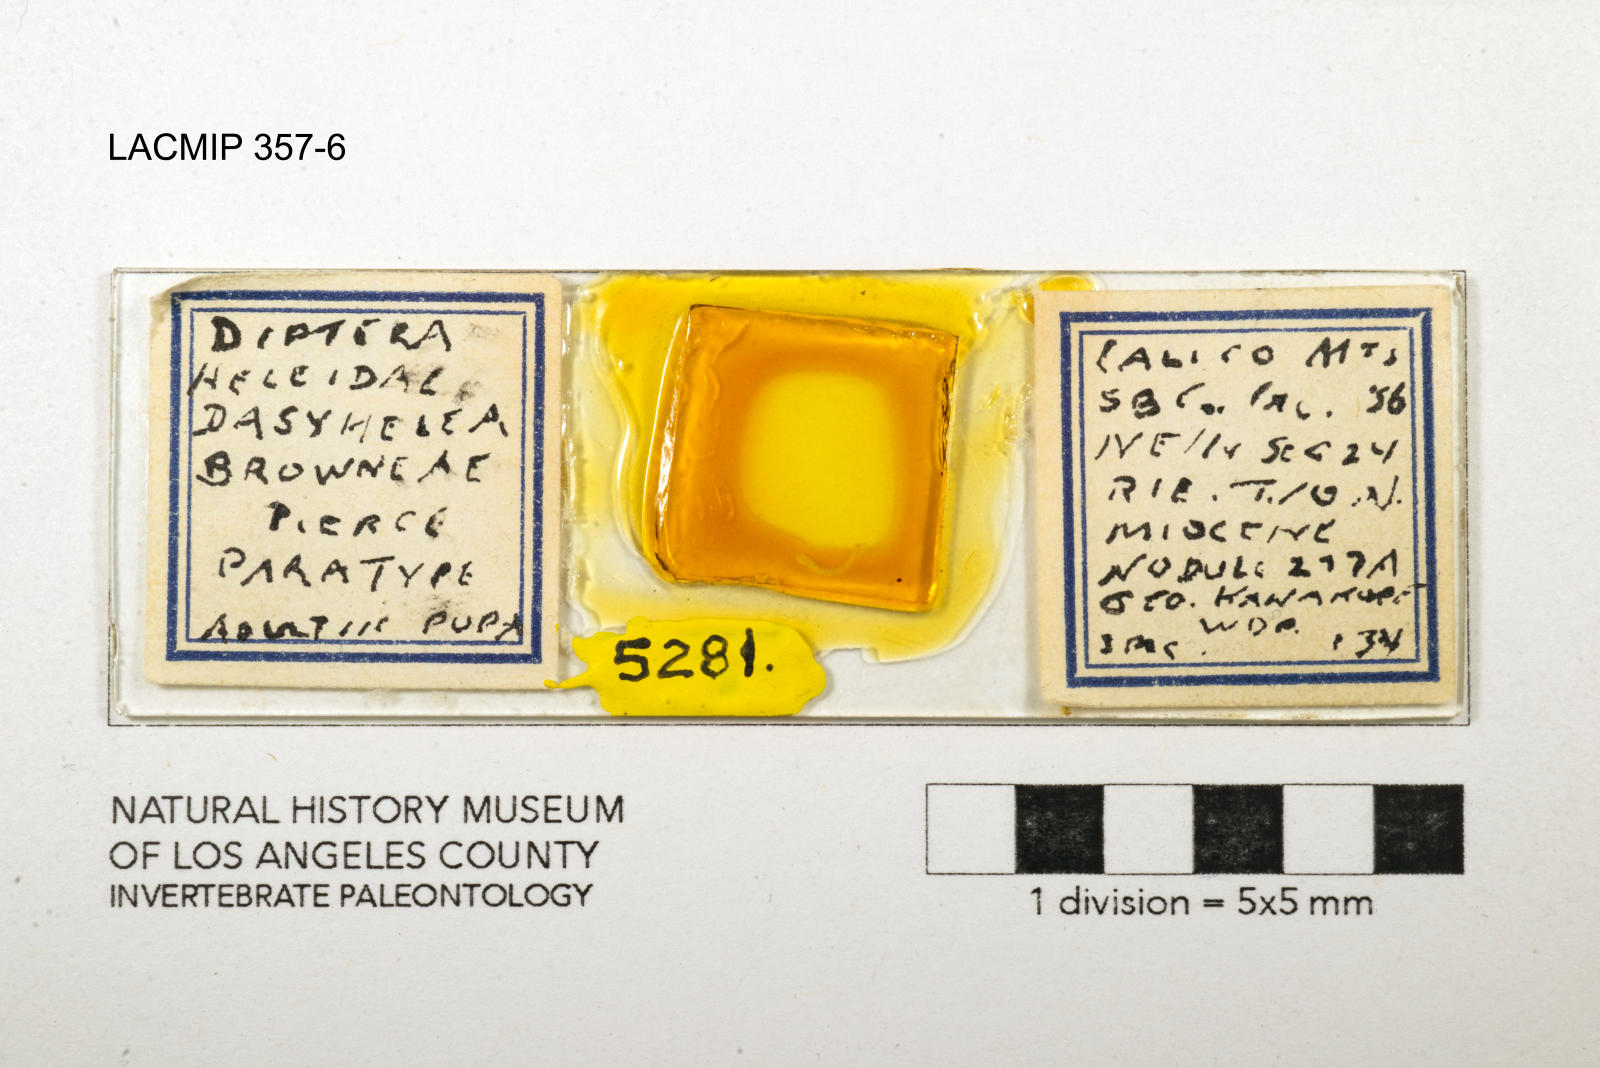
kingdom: Animalia
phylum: Arthropoda
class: Insecta
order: Diptera
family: Ceratopogonidae
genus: Dasyhelea
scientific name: Dasyhelea browneae
